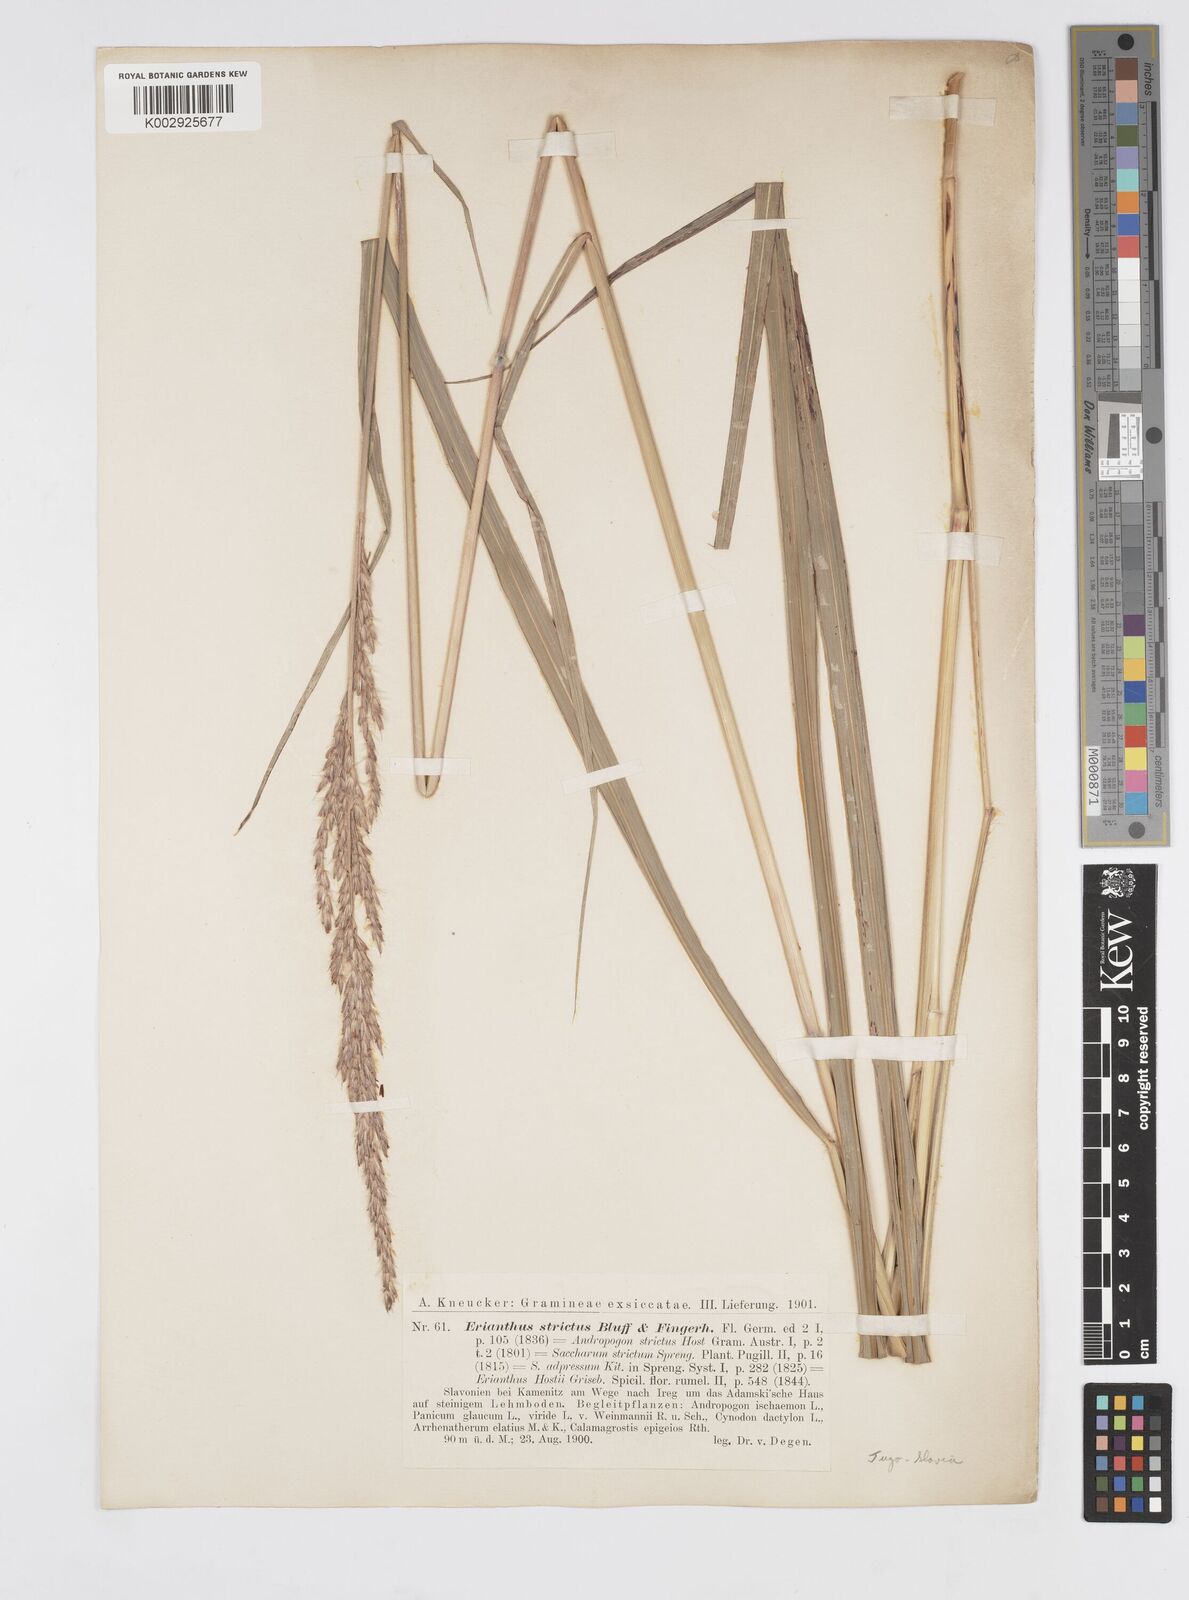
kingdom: Plantae
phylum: Tracheophyta
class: Liliopsida
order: Poales
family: Poaceae
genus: Tripidium
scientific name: Tripidium strictum
